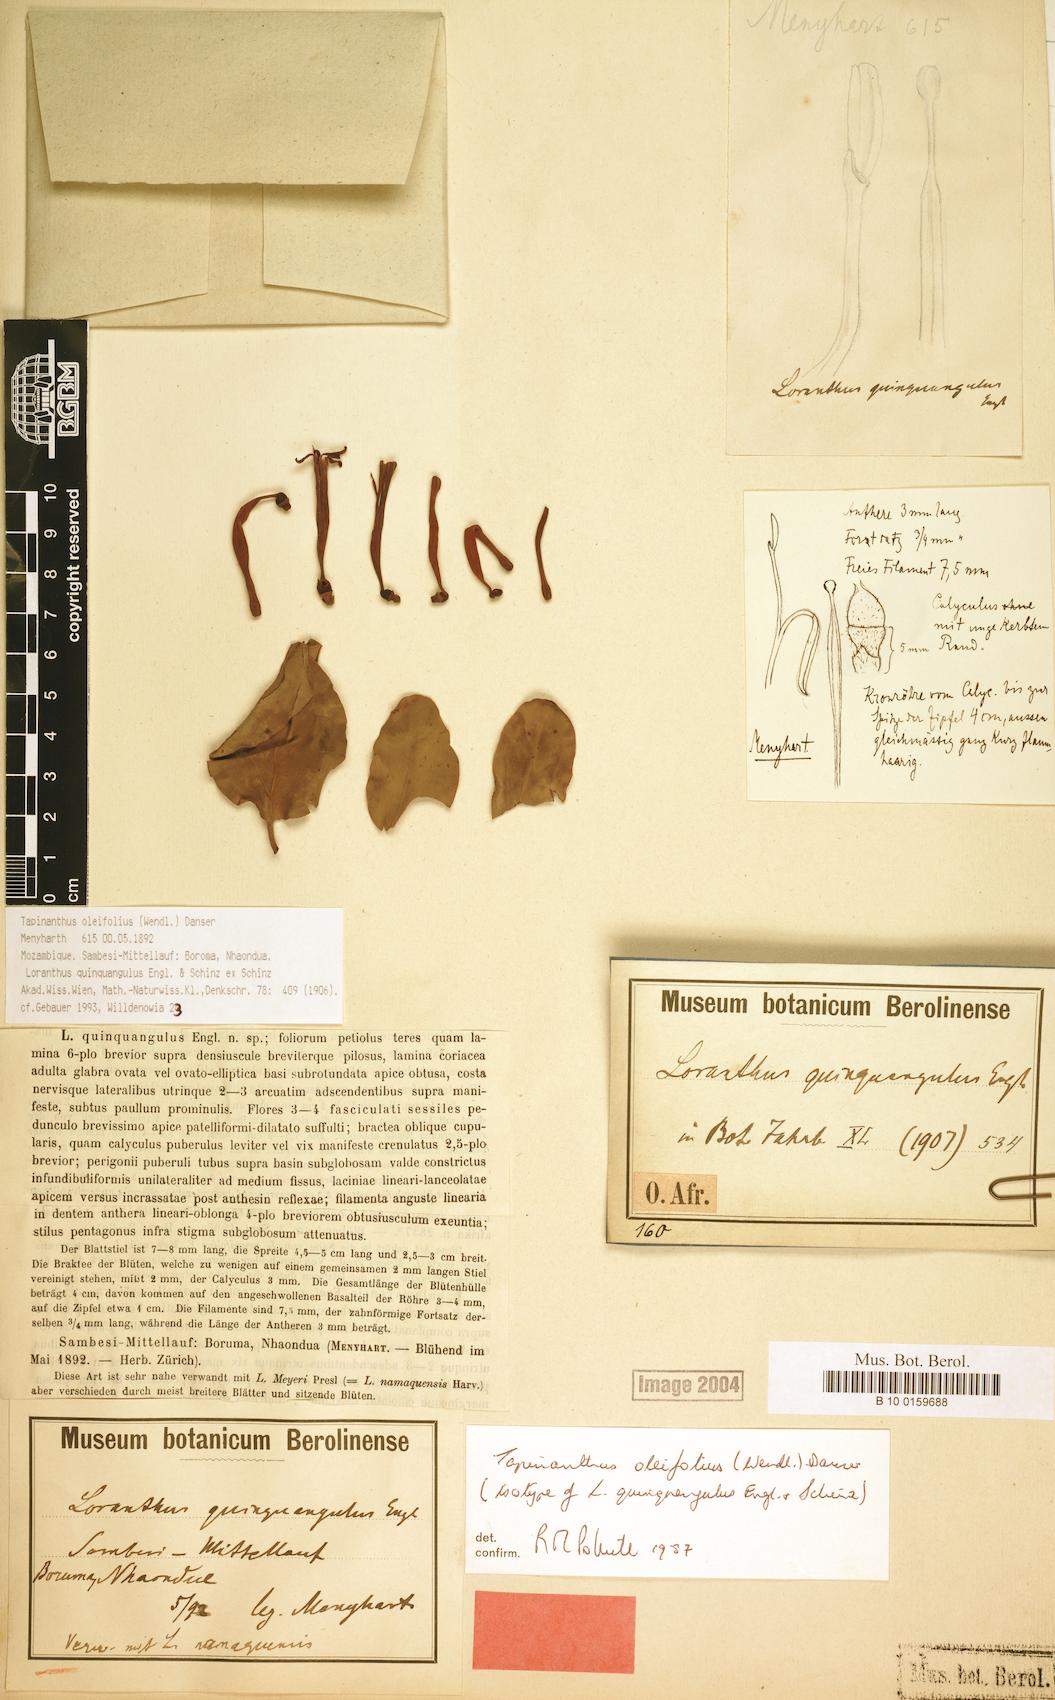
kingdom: Plantae
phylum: Tracheophyta
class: Magnoliopsida
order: Santalales
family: Loranthaceae
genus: Tapinanthus
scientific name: Tapinanthus oleifolius
